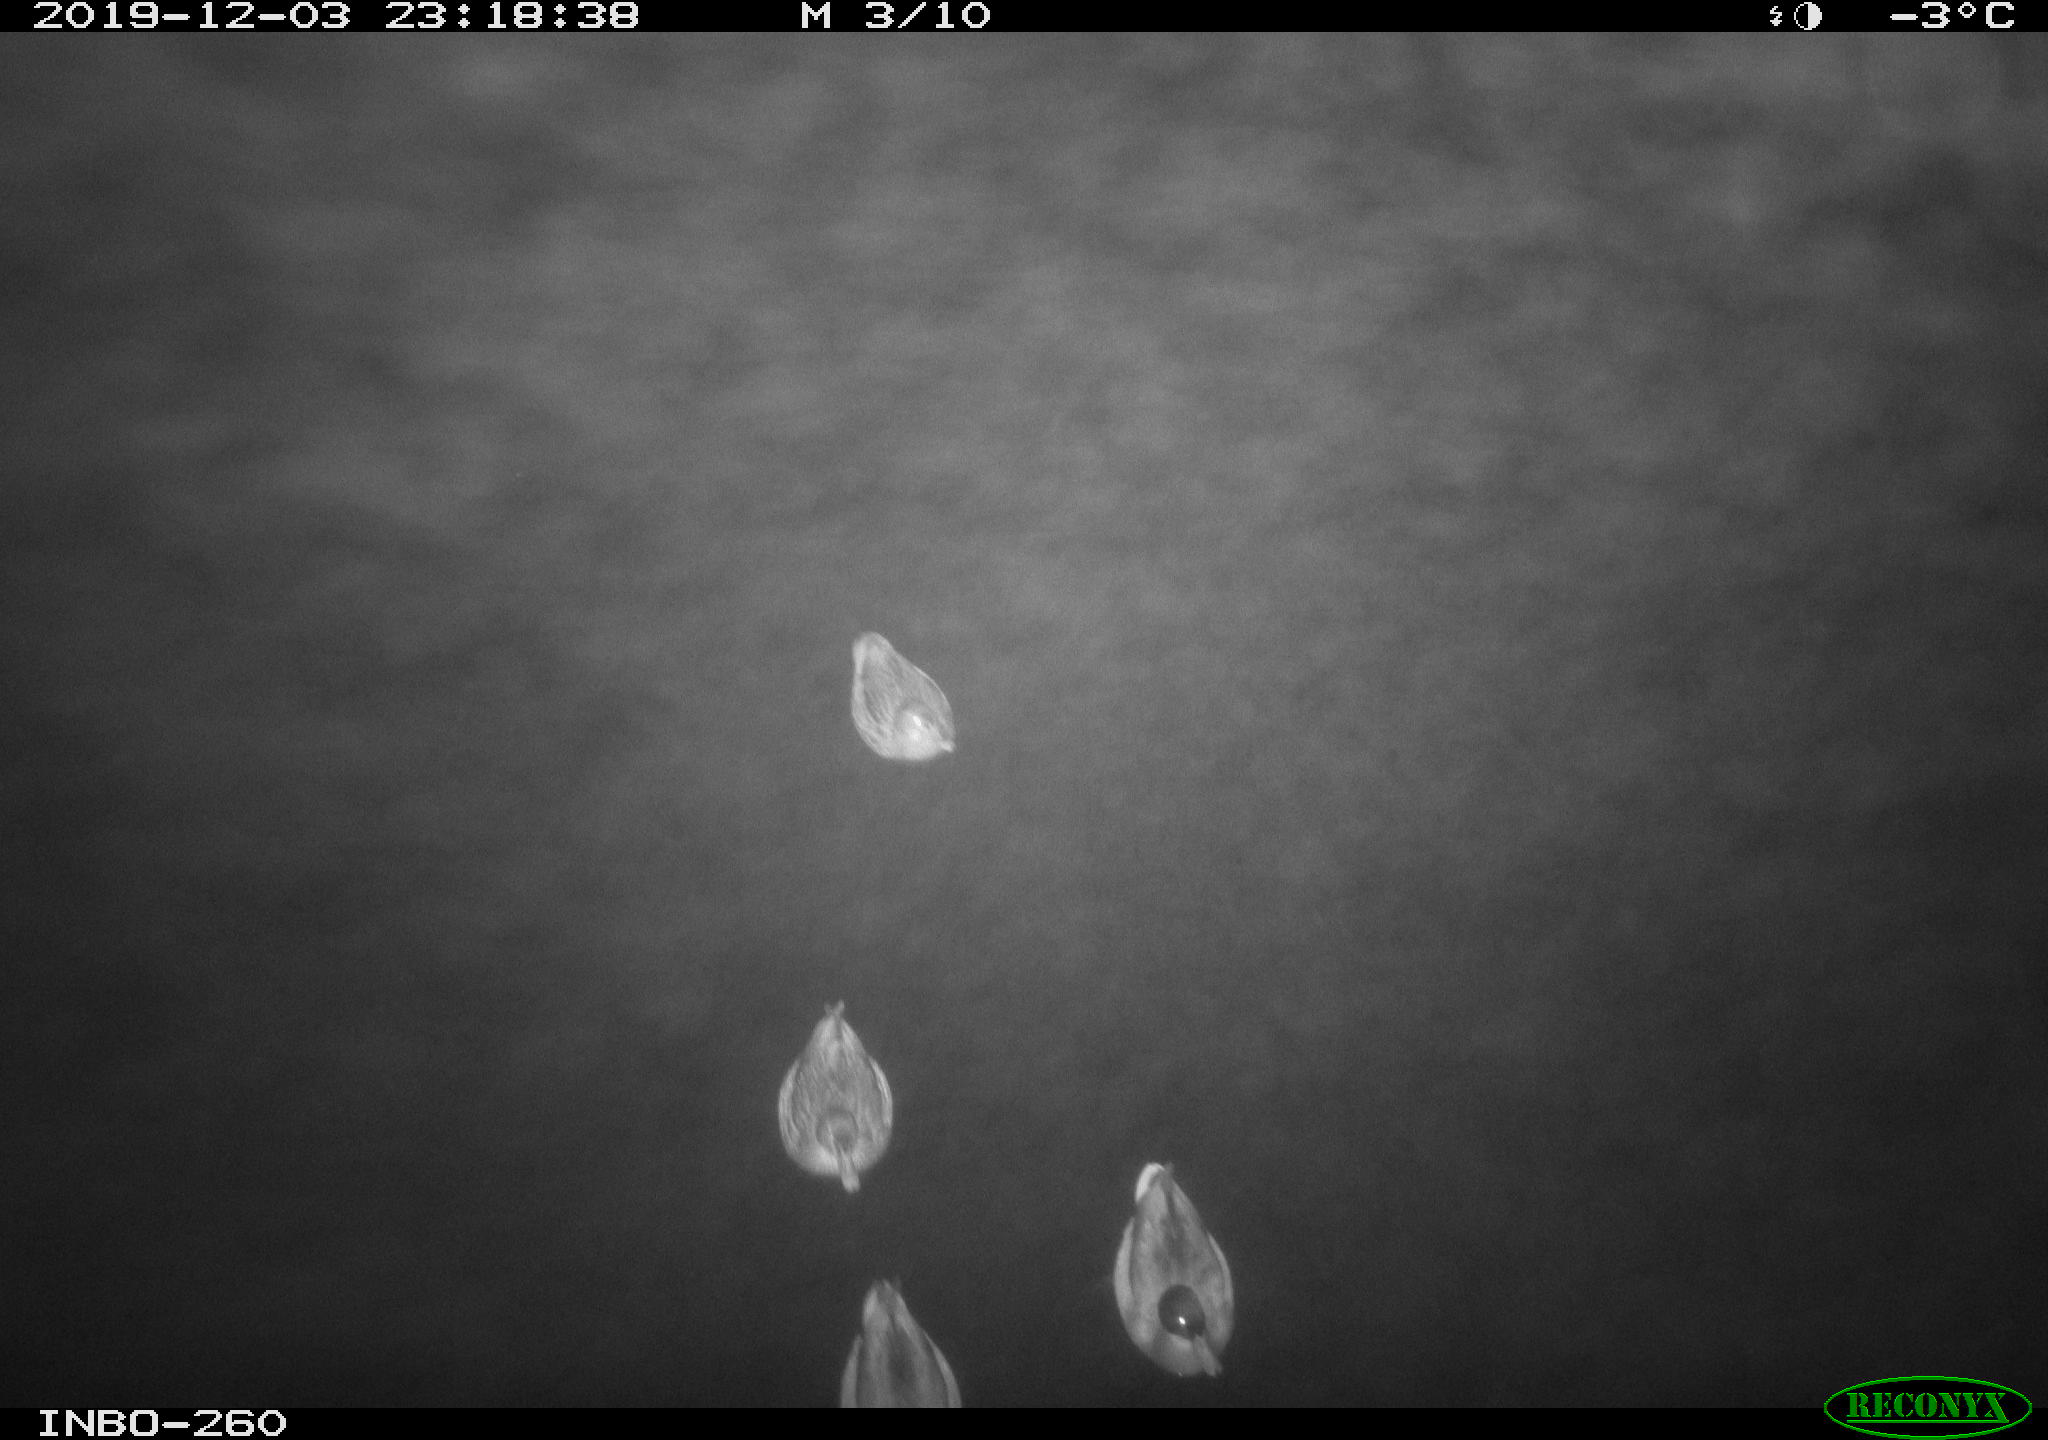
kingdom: Animalia
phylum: Chordata
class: Aves
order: Anseriformes
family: Anatidae
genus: Anas
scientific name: Anas platyrhynchos
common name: Mallard
